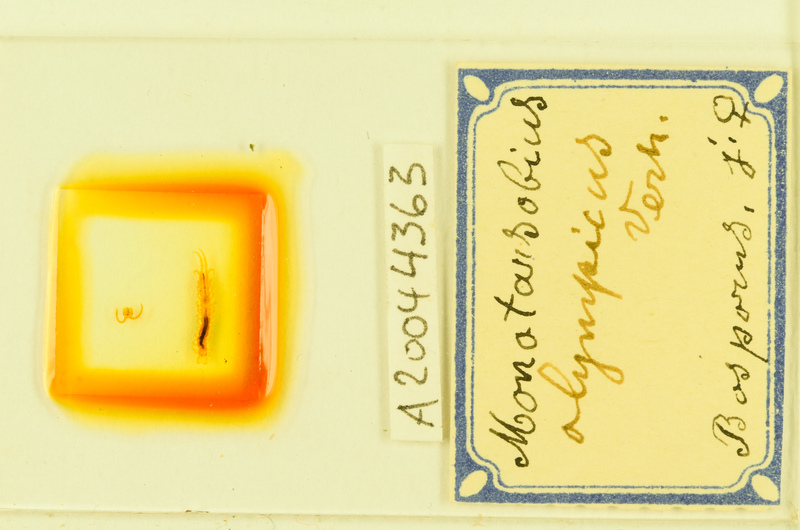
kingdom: Animalia
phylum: Arthropoda
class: Chilopoda
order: Lithobiomorpha
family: Lithobiidae
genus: Lithobius
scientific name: Lithobius crassipes
